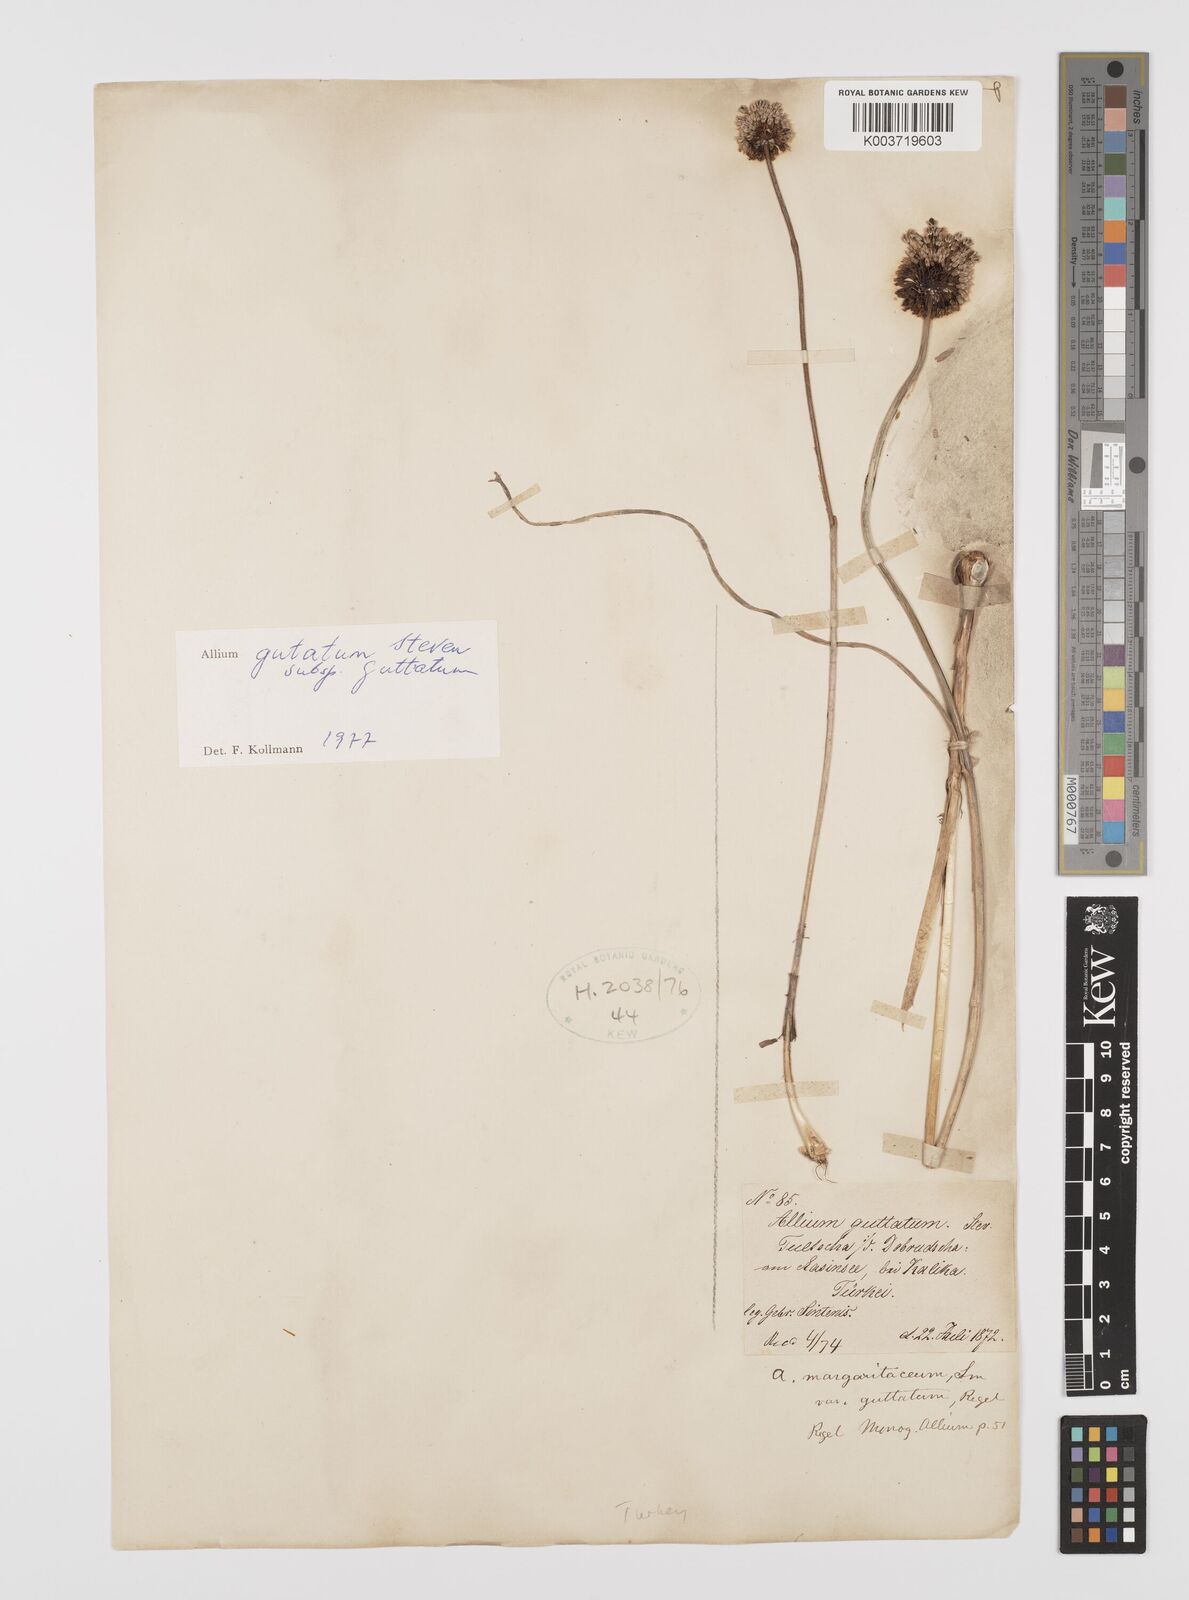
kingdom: Plantae
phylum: Tracheophyta
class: Liliopsida
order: Asparagales
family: Amaryllidaceae
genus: Allium
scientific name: Allium guttatum
